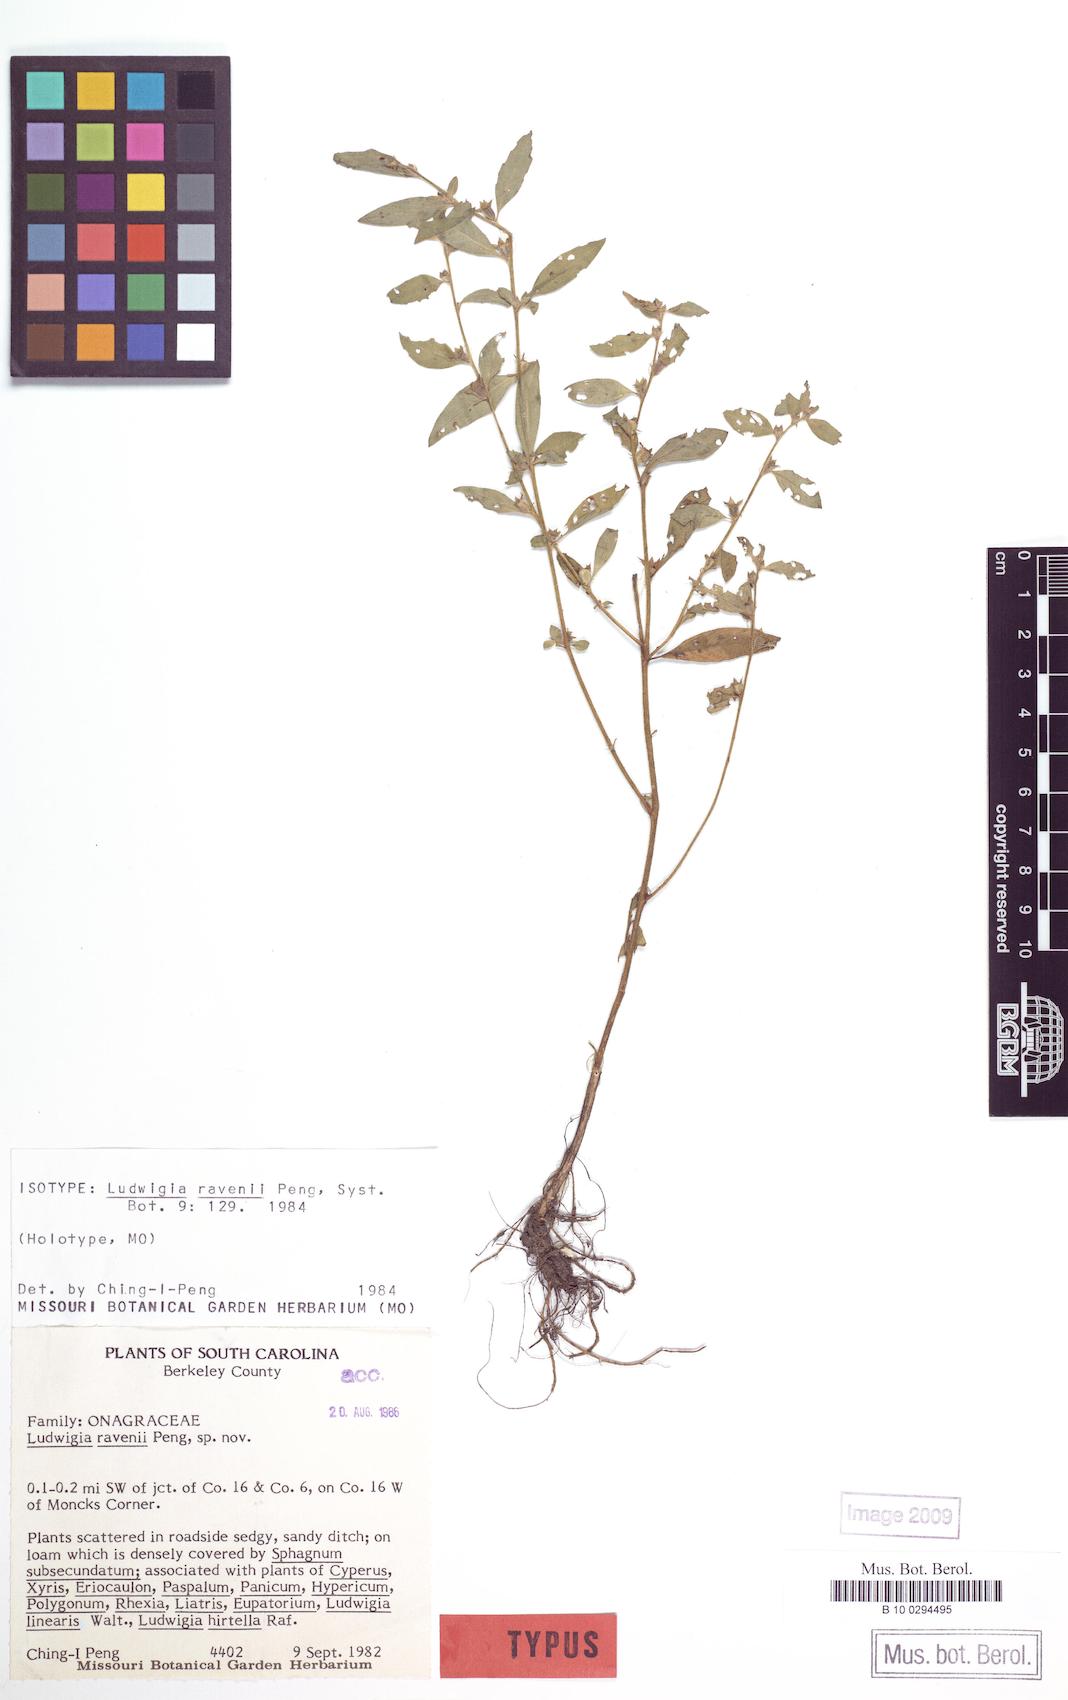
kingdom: Plantae
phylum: Tracheophyta
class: Magnoliopsida
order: Myrtales
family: Onagraceae
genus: Ludwigia
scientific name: Ludwigia ravenii
